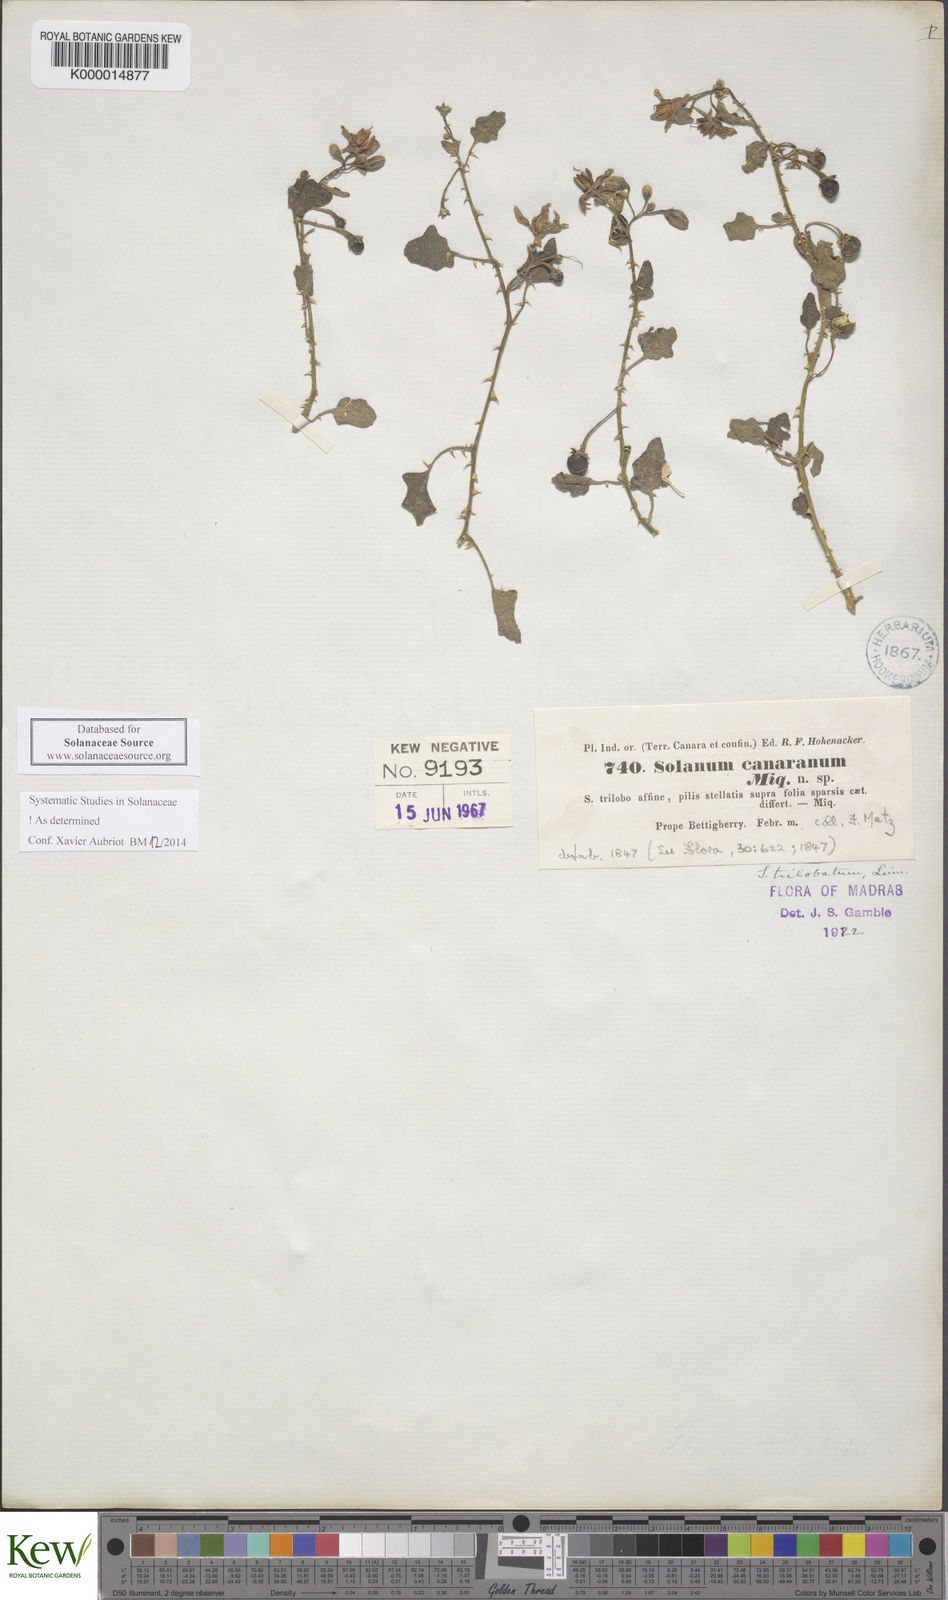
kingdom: Plantae
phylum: Tracheophyta
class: Magnoliopsida
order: Solanales
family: Solanaceae
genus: Solanum
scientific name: Solanum trilobatum
